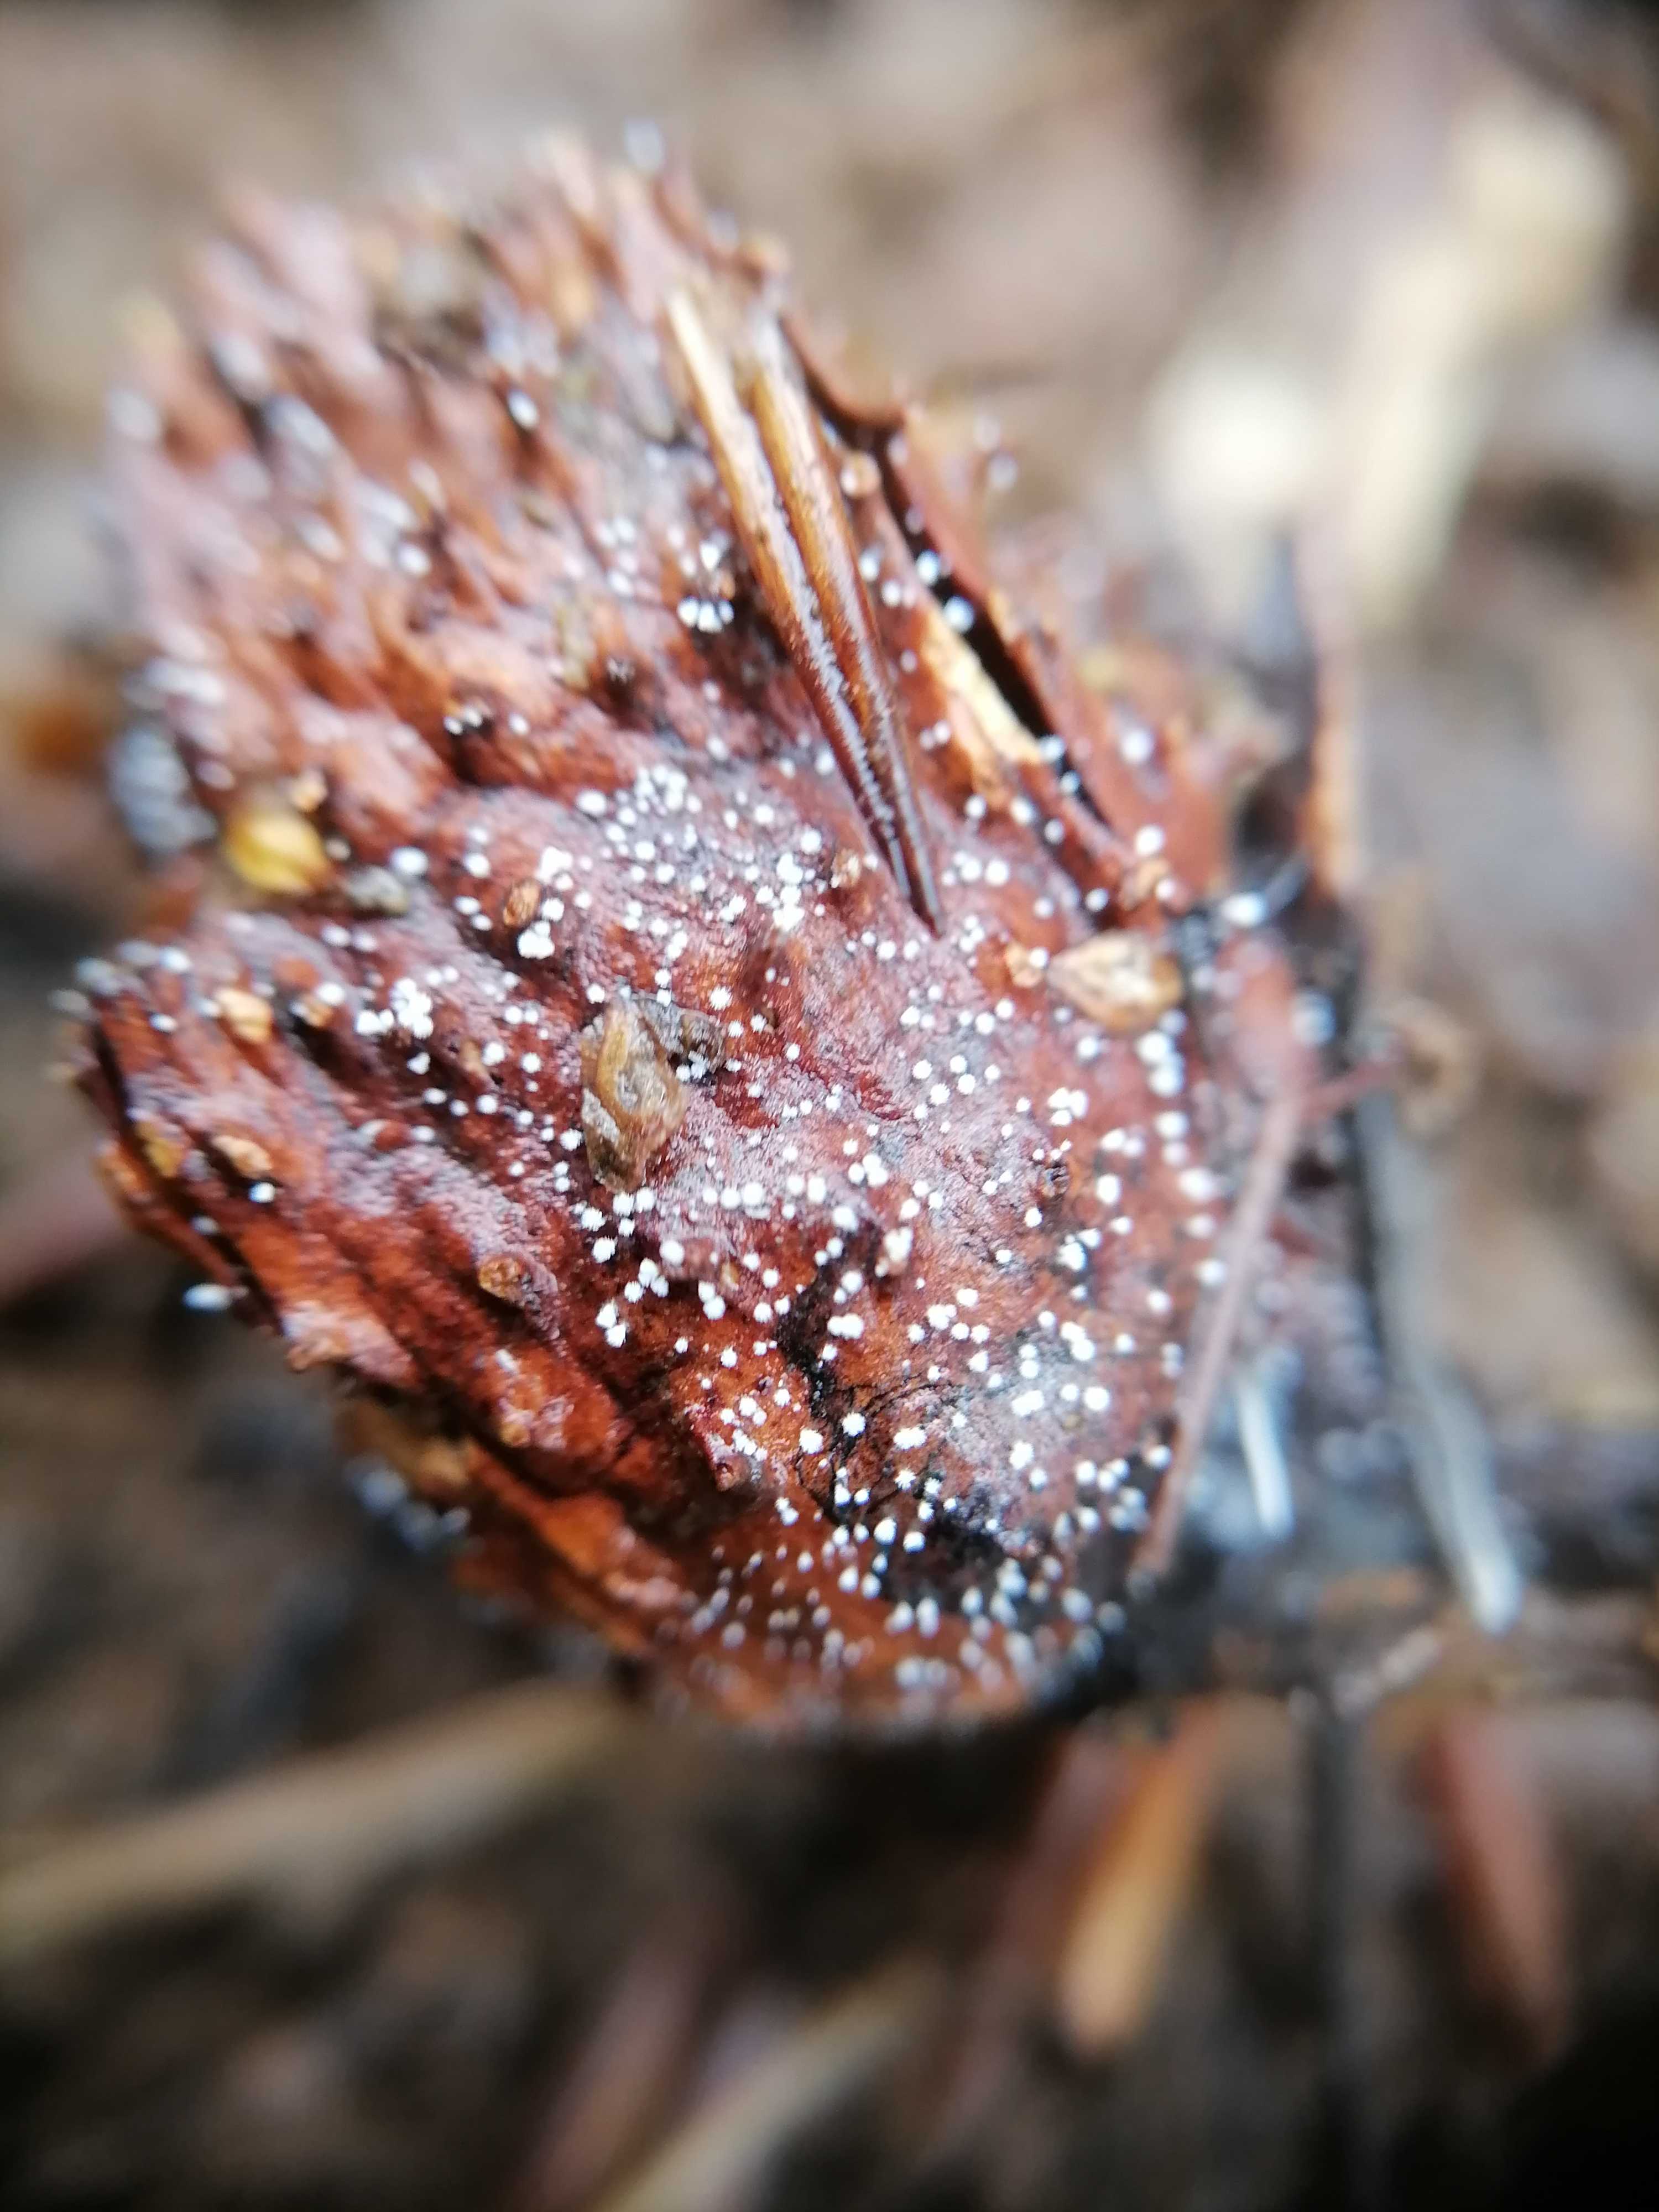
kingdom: Fungi
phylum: Ascomycota
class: Leotiomycetes
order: Helotiales
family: Lachnaceae
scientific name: Lachnaceae
